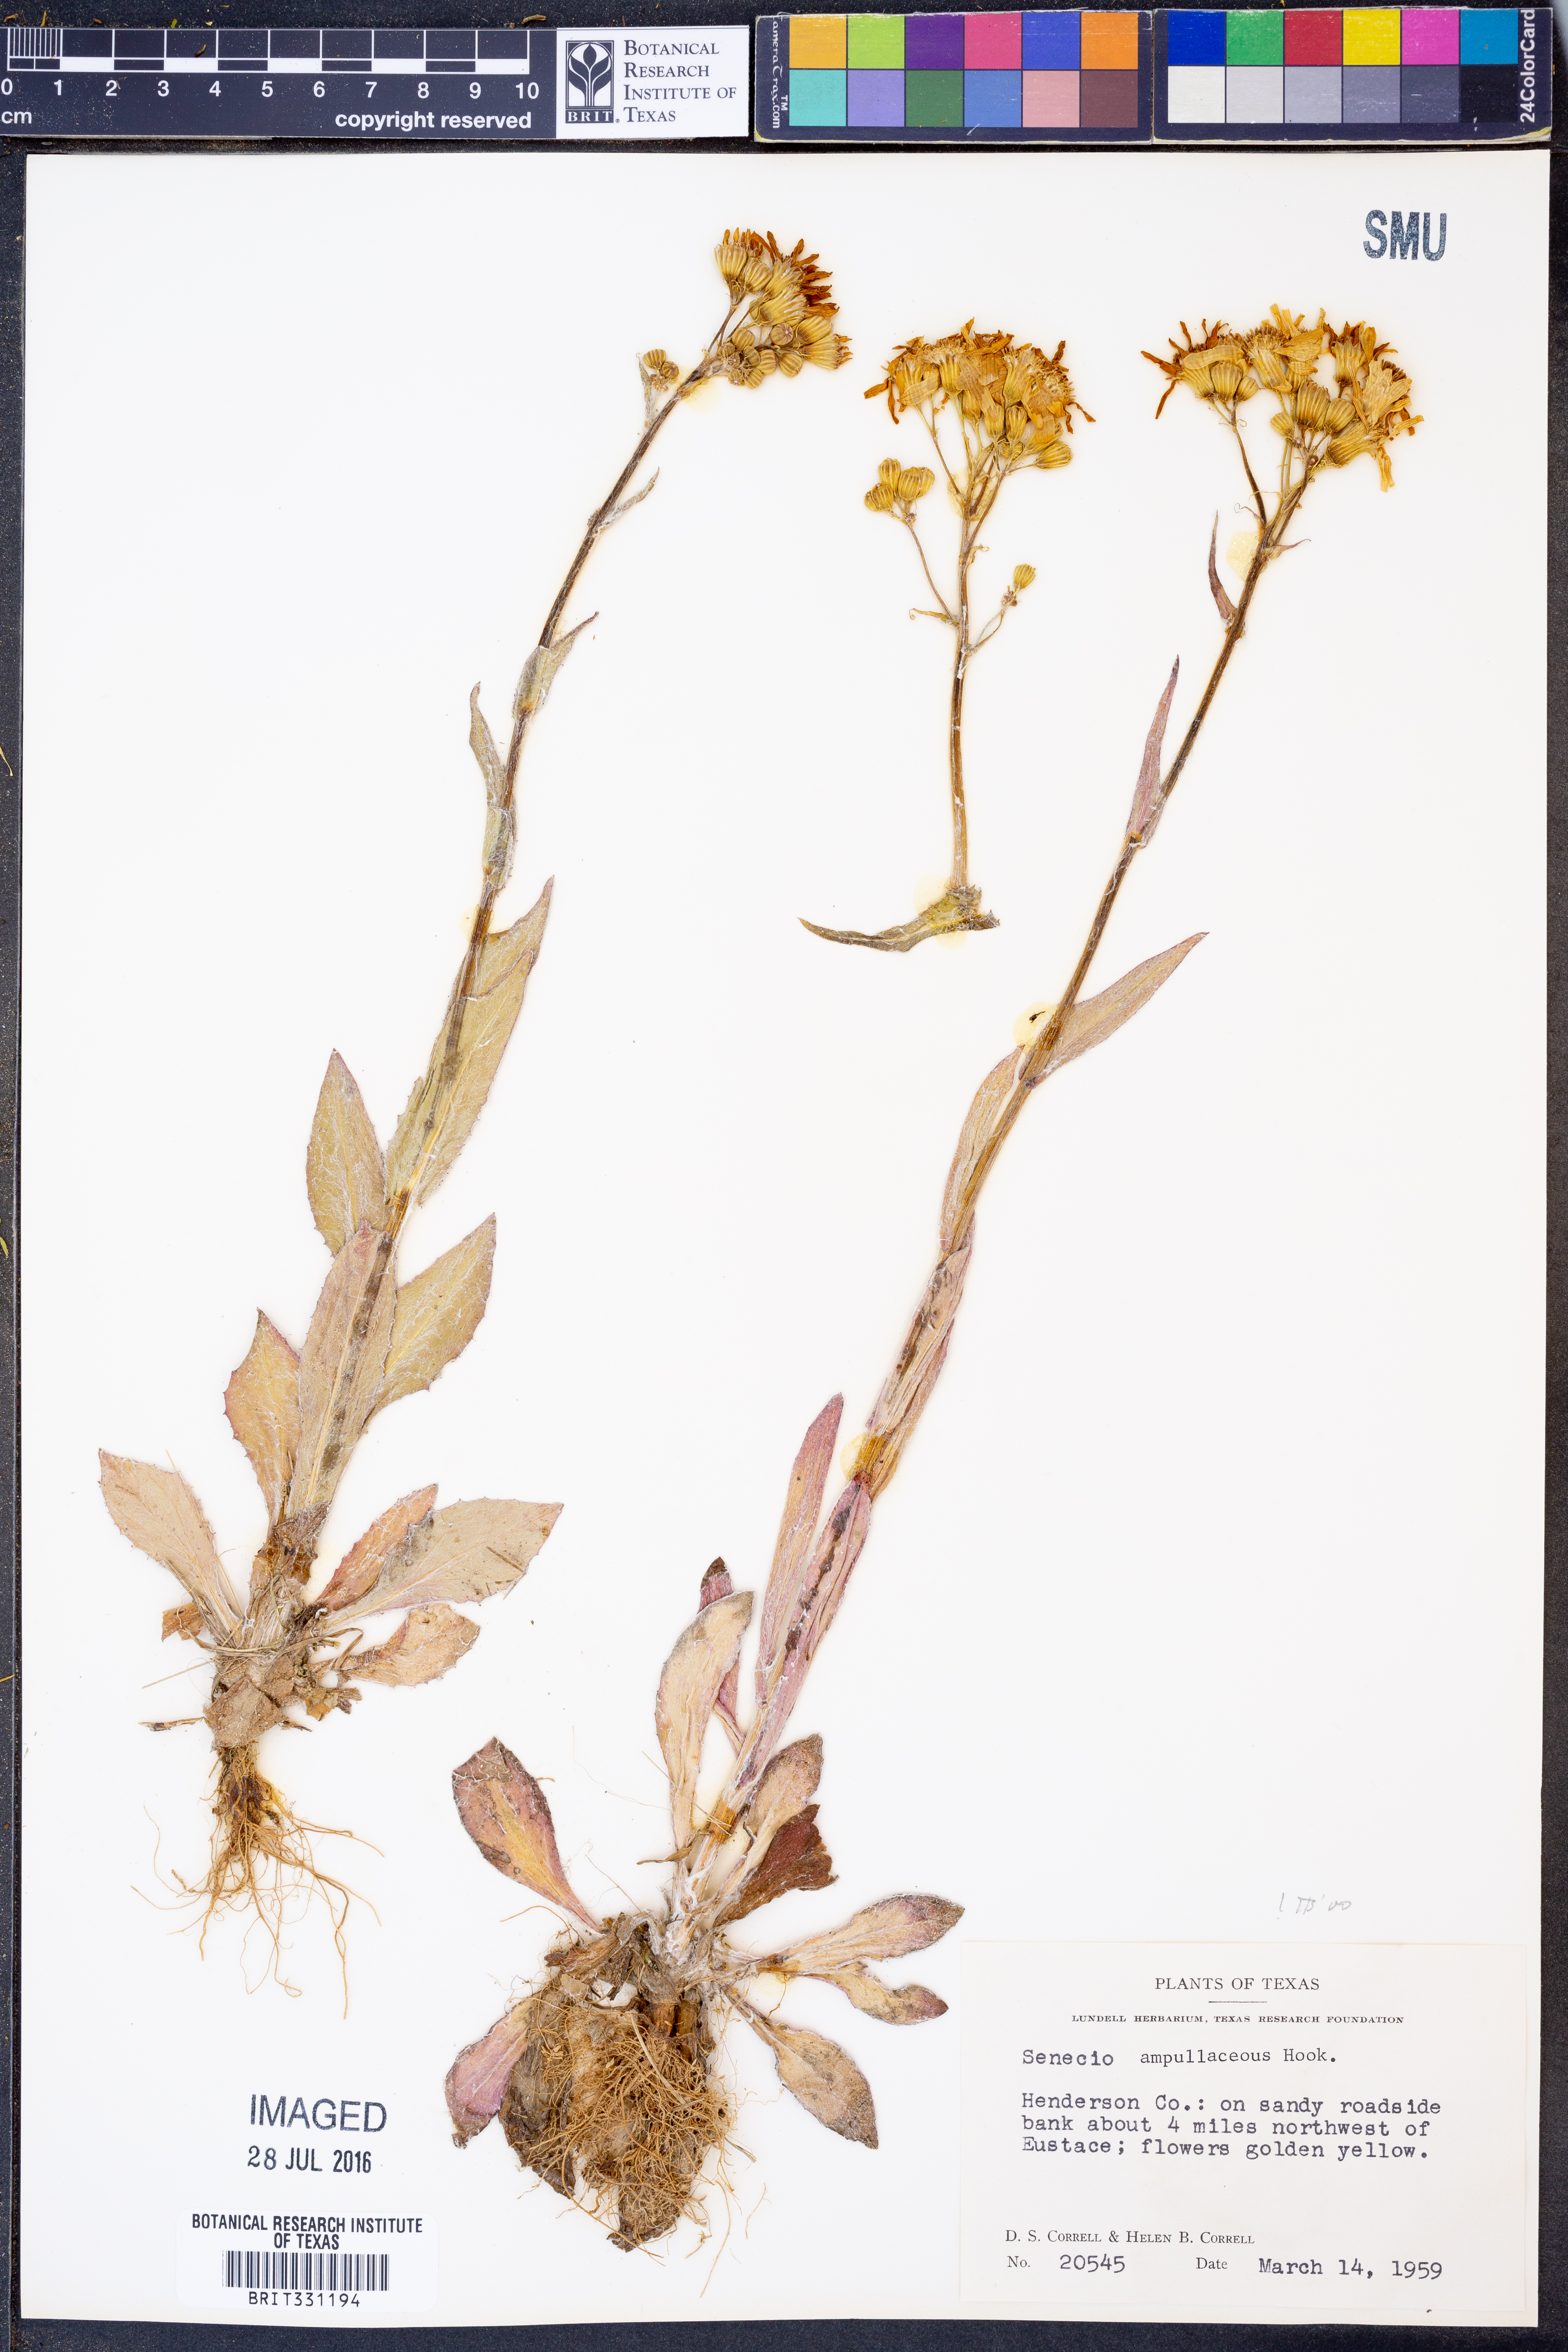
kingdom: Plantae
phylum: Tracheophyta
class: Magnoliopsida
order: Asterales
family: Asteraceae
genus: Senecio
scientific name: Senecio ampullaceus
